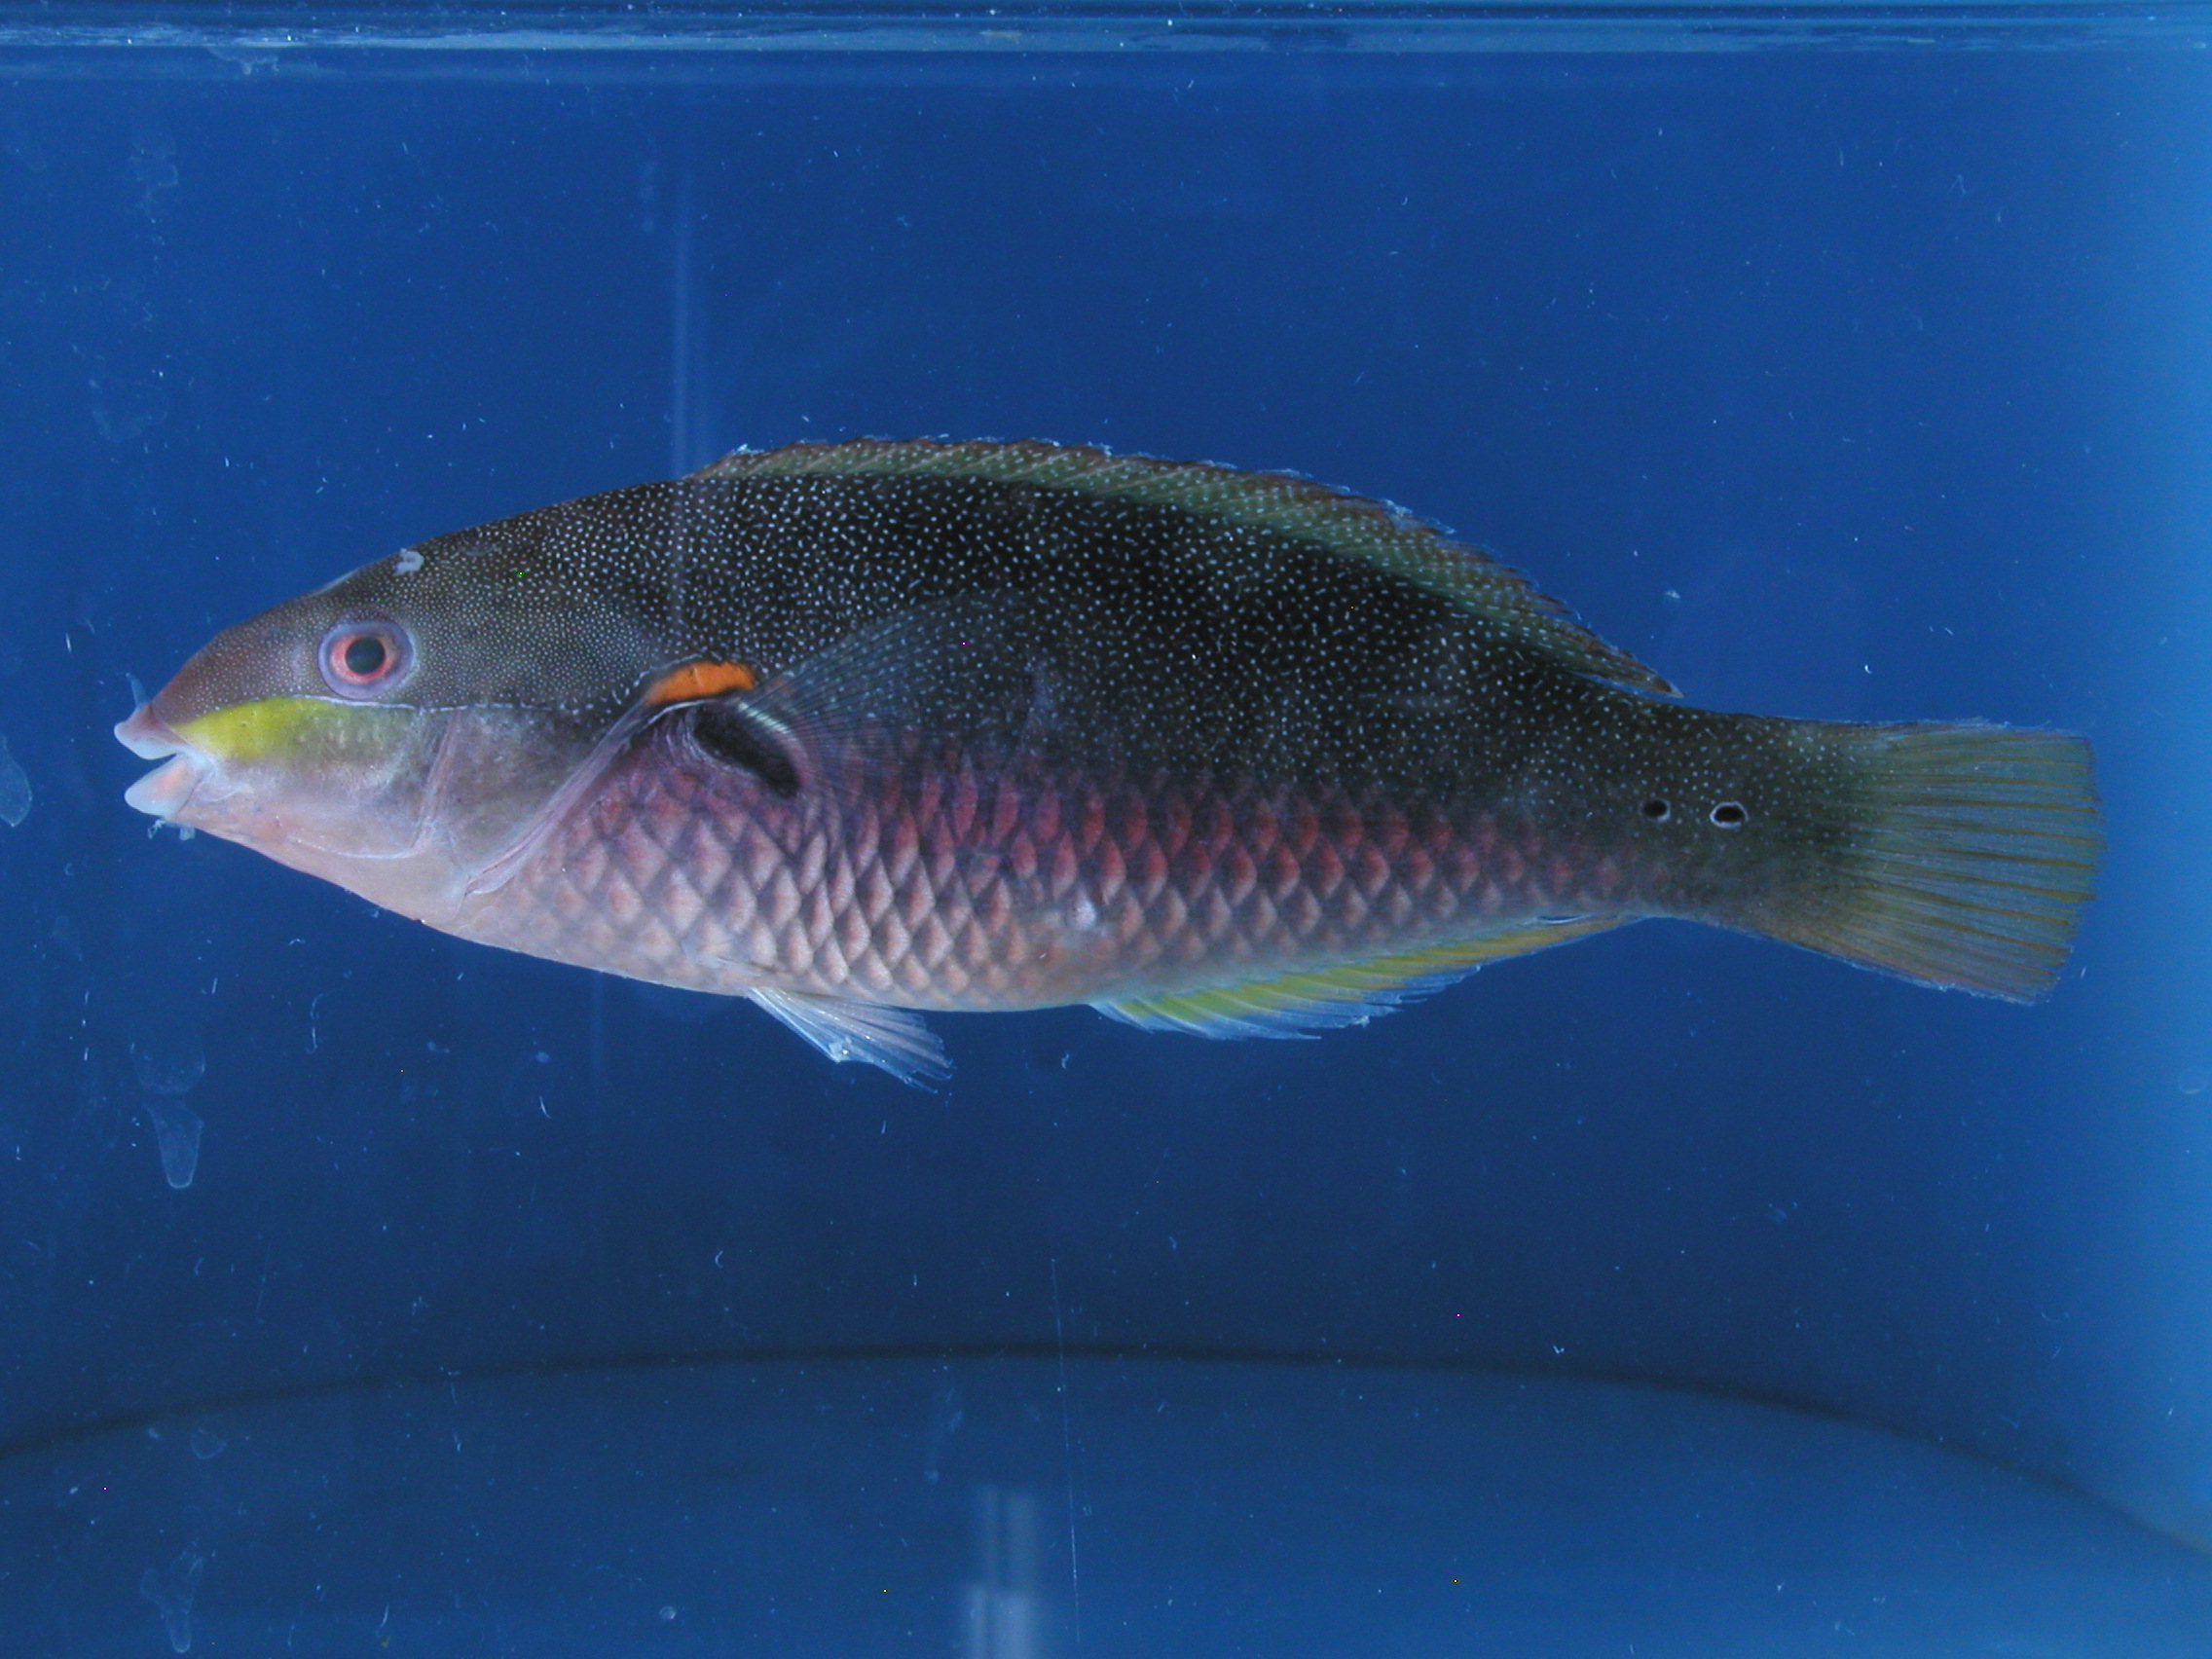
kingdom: Animalia
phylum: Chordata
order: Perciformes
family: Labridae
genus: Stethojulis
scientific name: Stethojulis albovittata
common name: Bluelined wrasse
